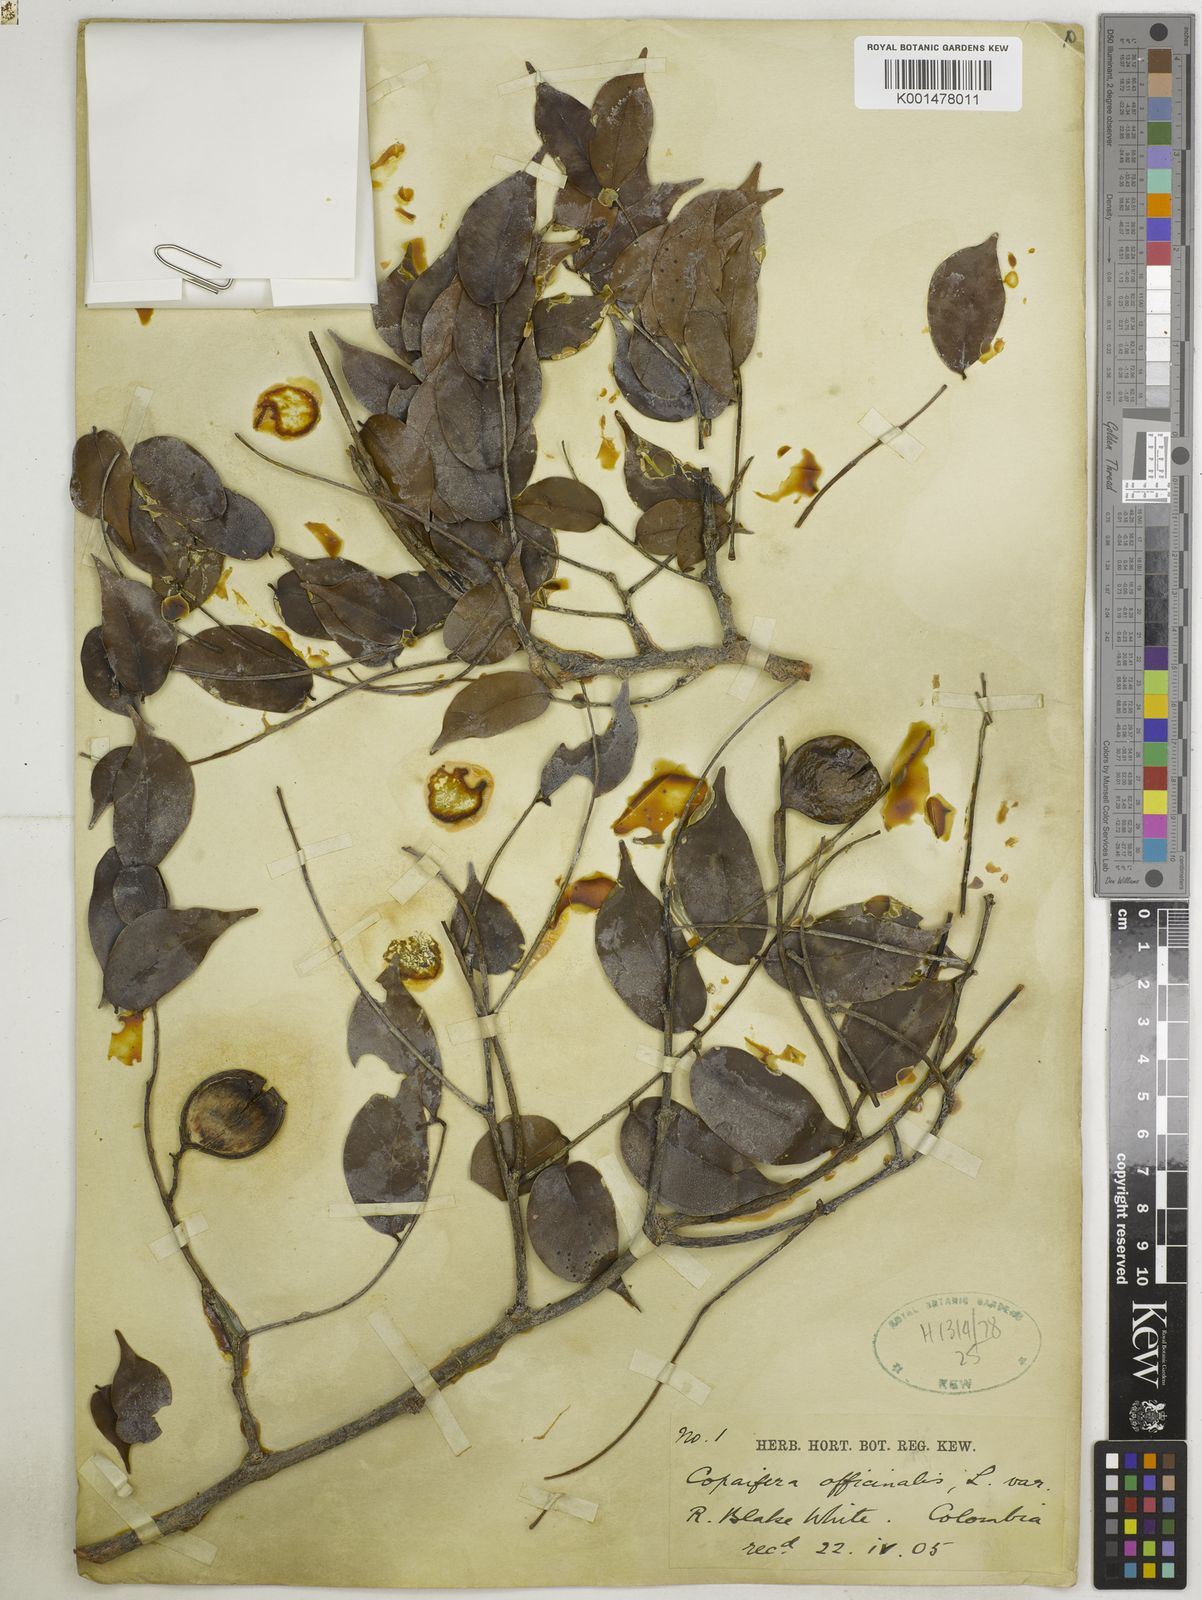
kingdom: Plantae
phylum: Tracheophyta
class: Magnoliopsida
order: Fabales
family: Fabaceae
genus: Copaifera
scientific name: Copaifera officinalis
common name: Copaiba
